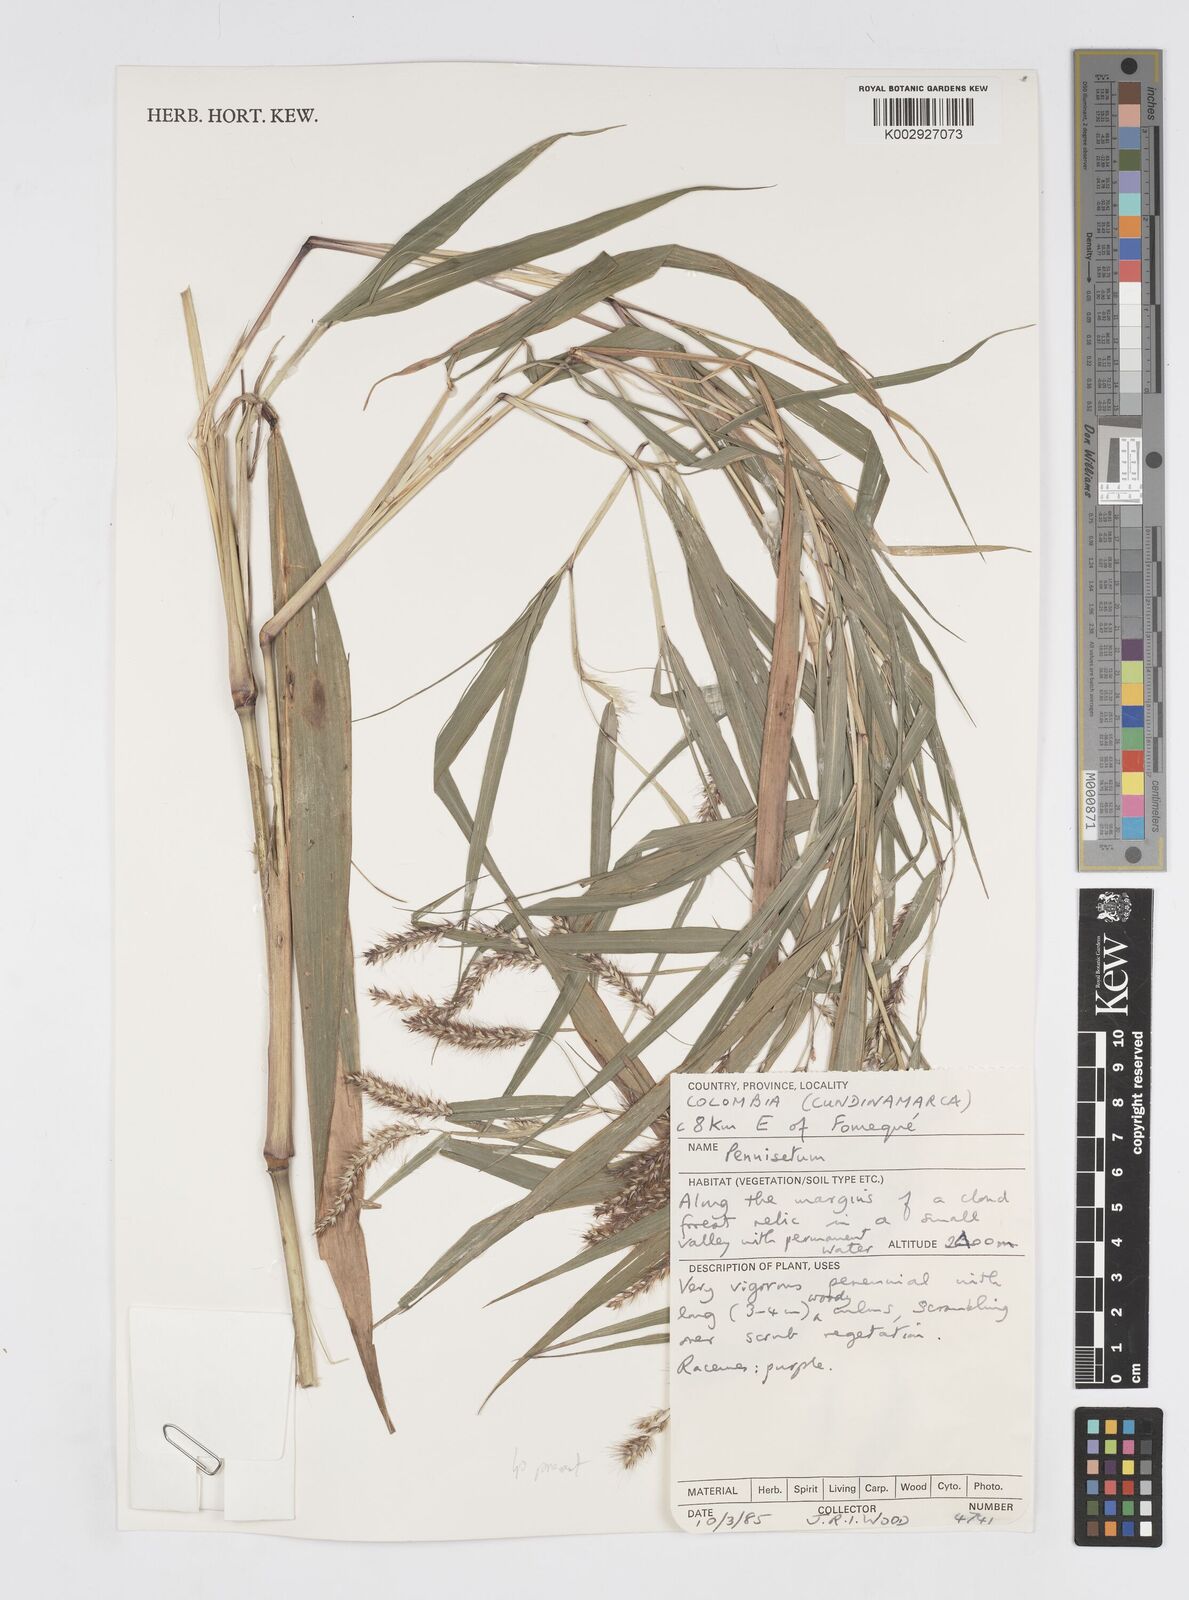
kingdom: Plantae
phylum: Tracheophyta
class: Liliopsida
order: Poales
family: Poaceae
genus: Cenchrus
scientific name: Cenchrus tristachyus
